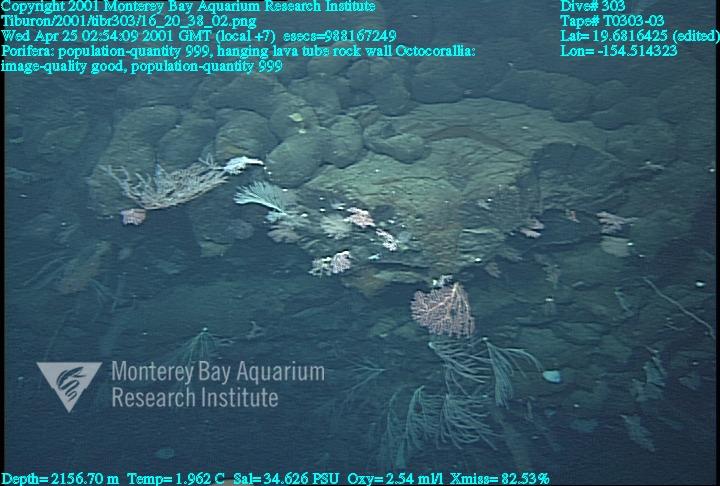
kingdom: Animalia
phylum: Porifera
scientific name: Porifera
